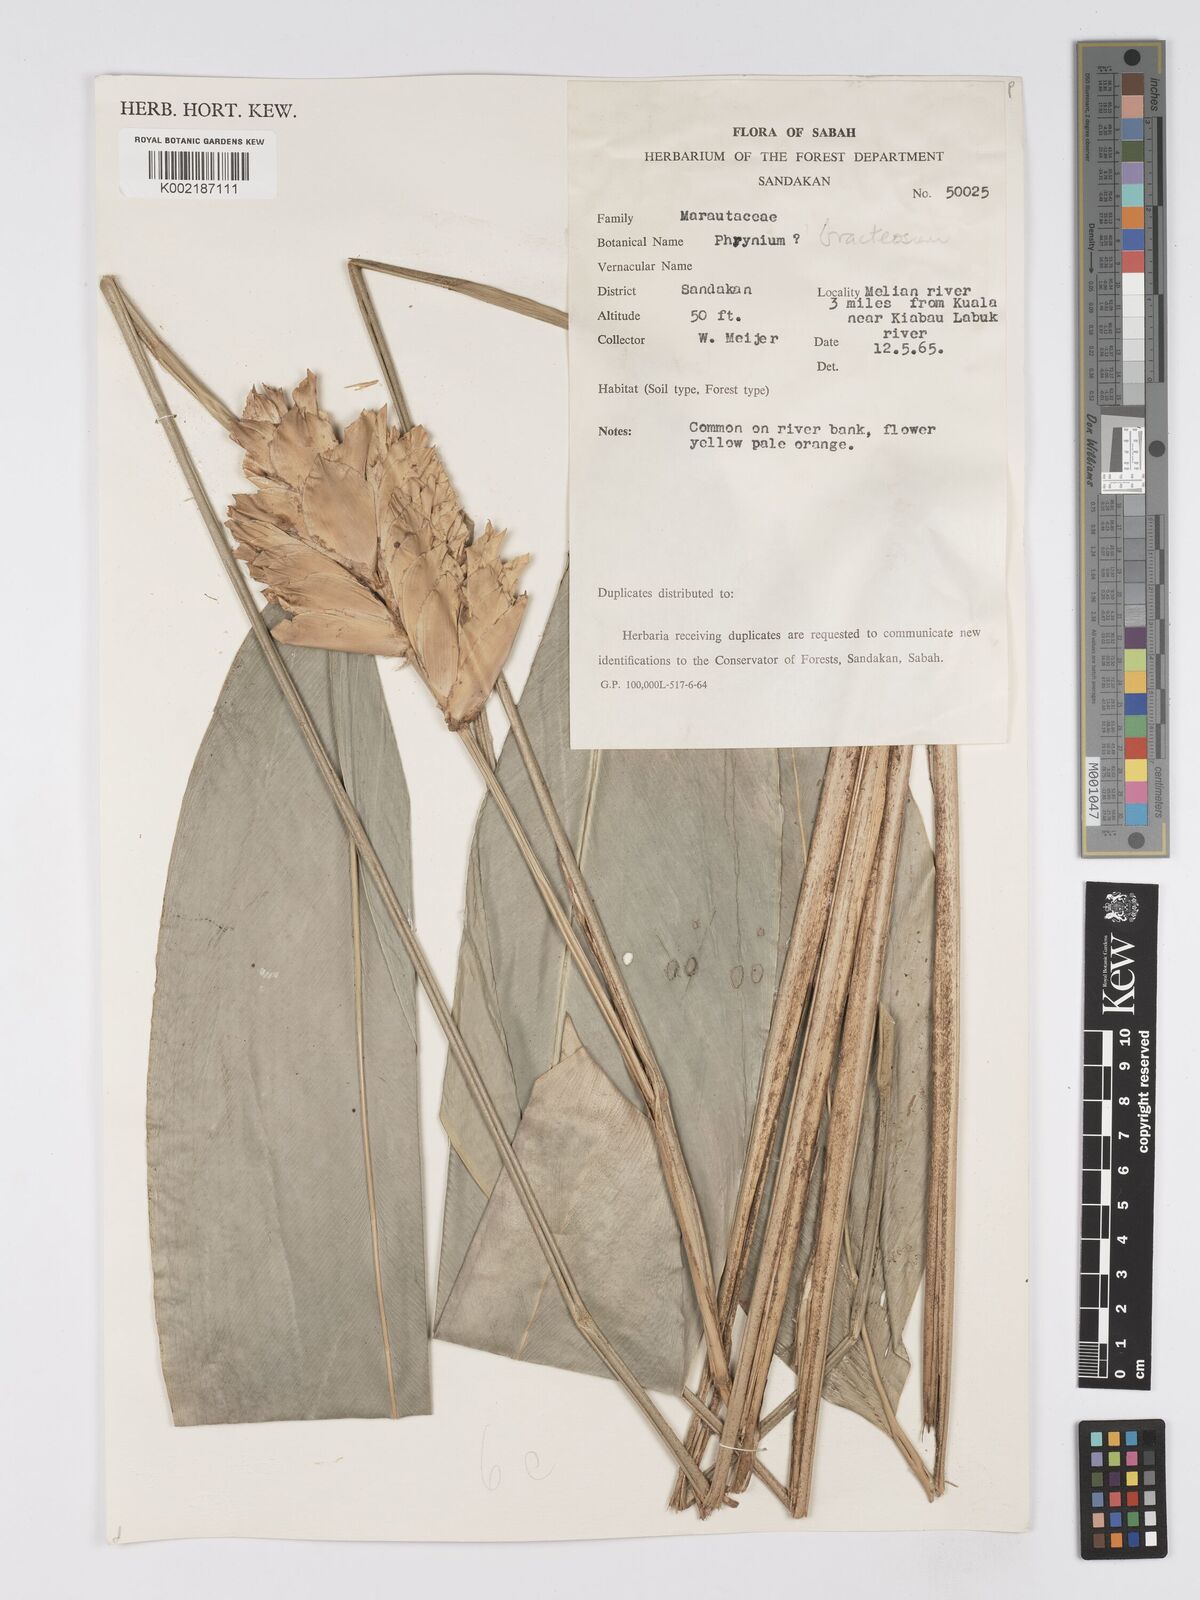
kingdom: Plantae
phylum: Tracheophyta
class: Liliopsida
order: Zingiberales
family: Marantaceae
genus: Phrynium
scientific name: Phrynium maximum
